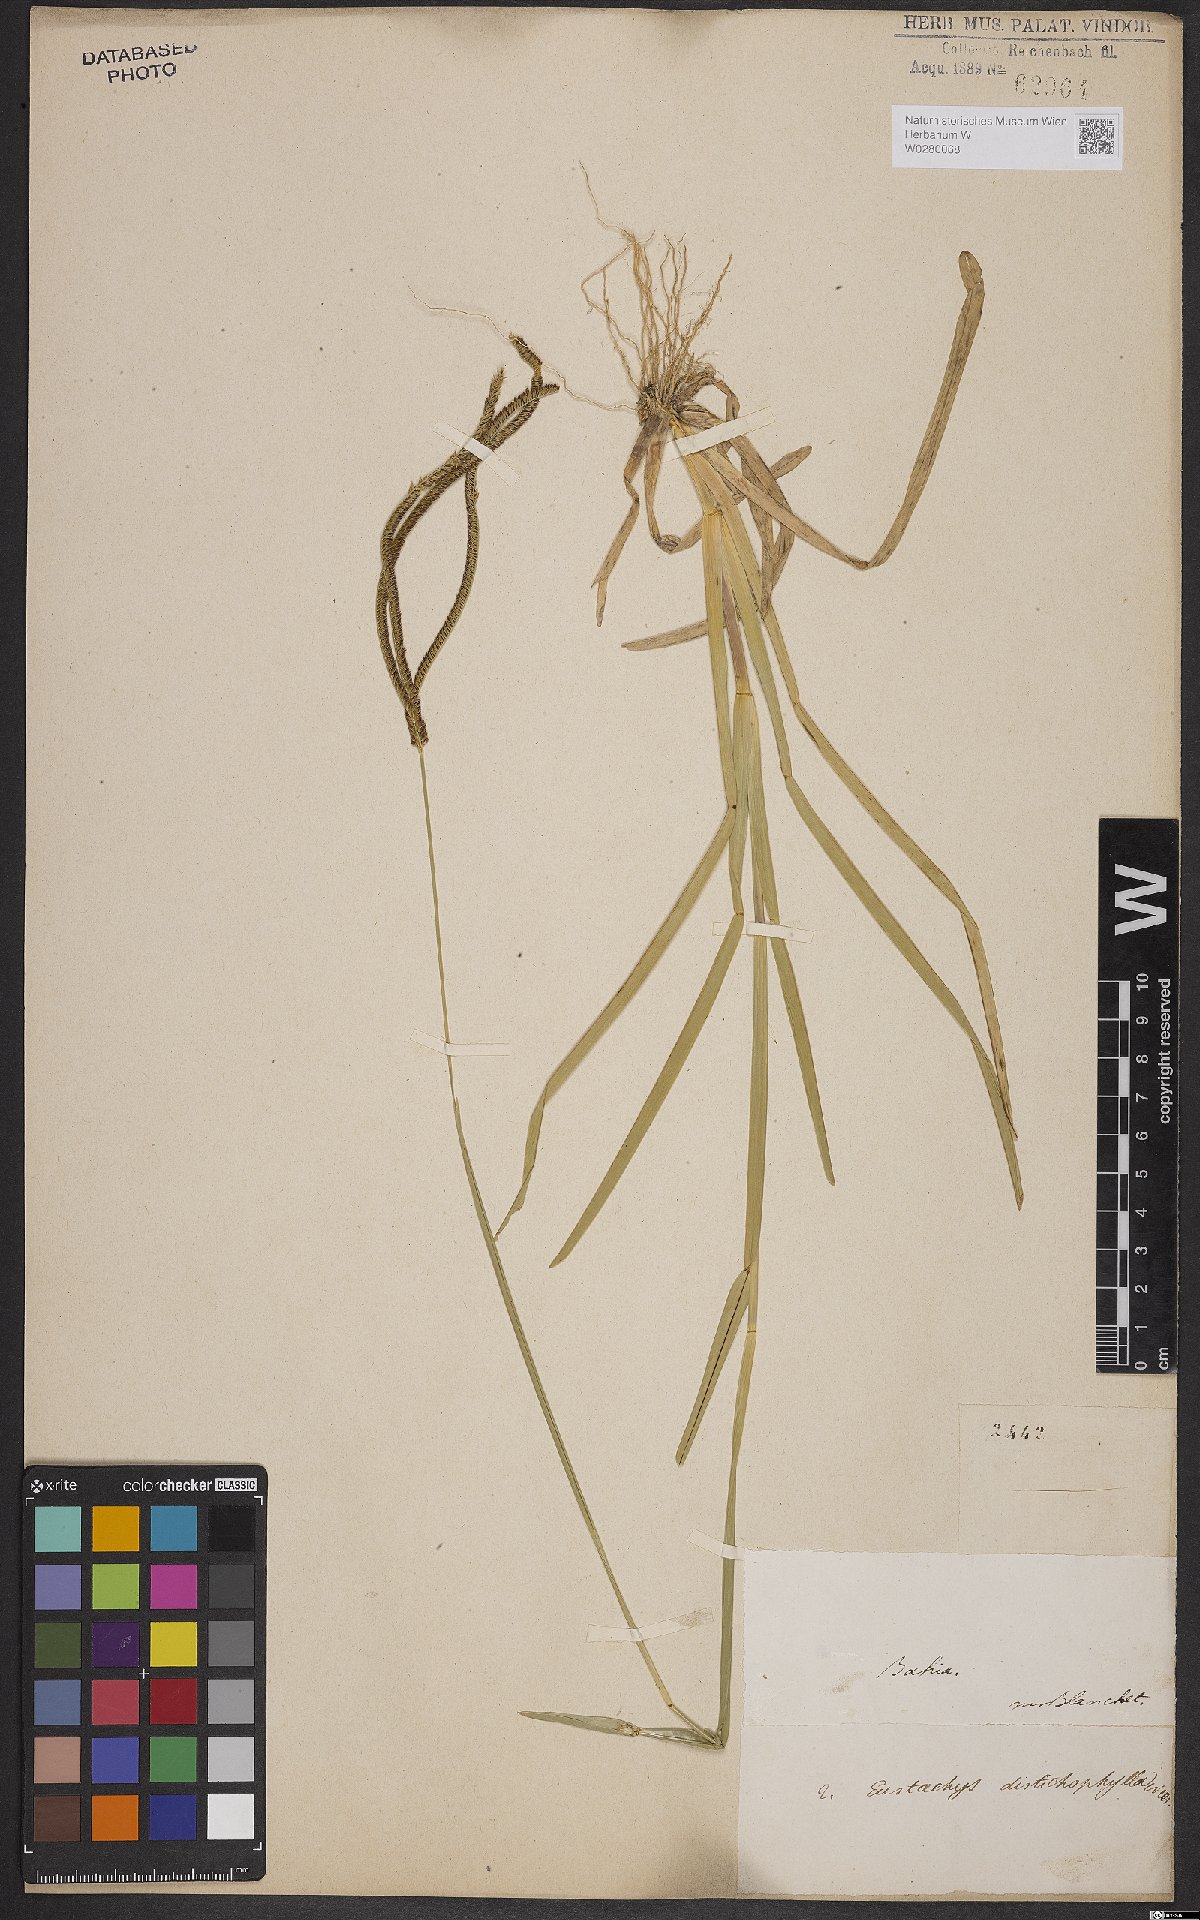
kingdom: Plantae
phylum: Tracheophyta
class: Liliopsida
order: Poales
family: Poaceae
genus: Eustachys
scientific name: Eustachys distichophylla
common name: Weeping fingergrass
